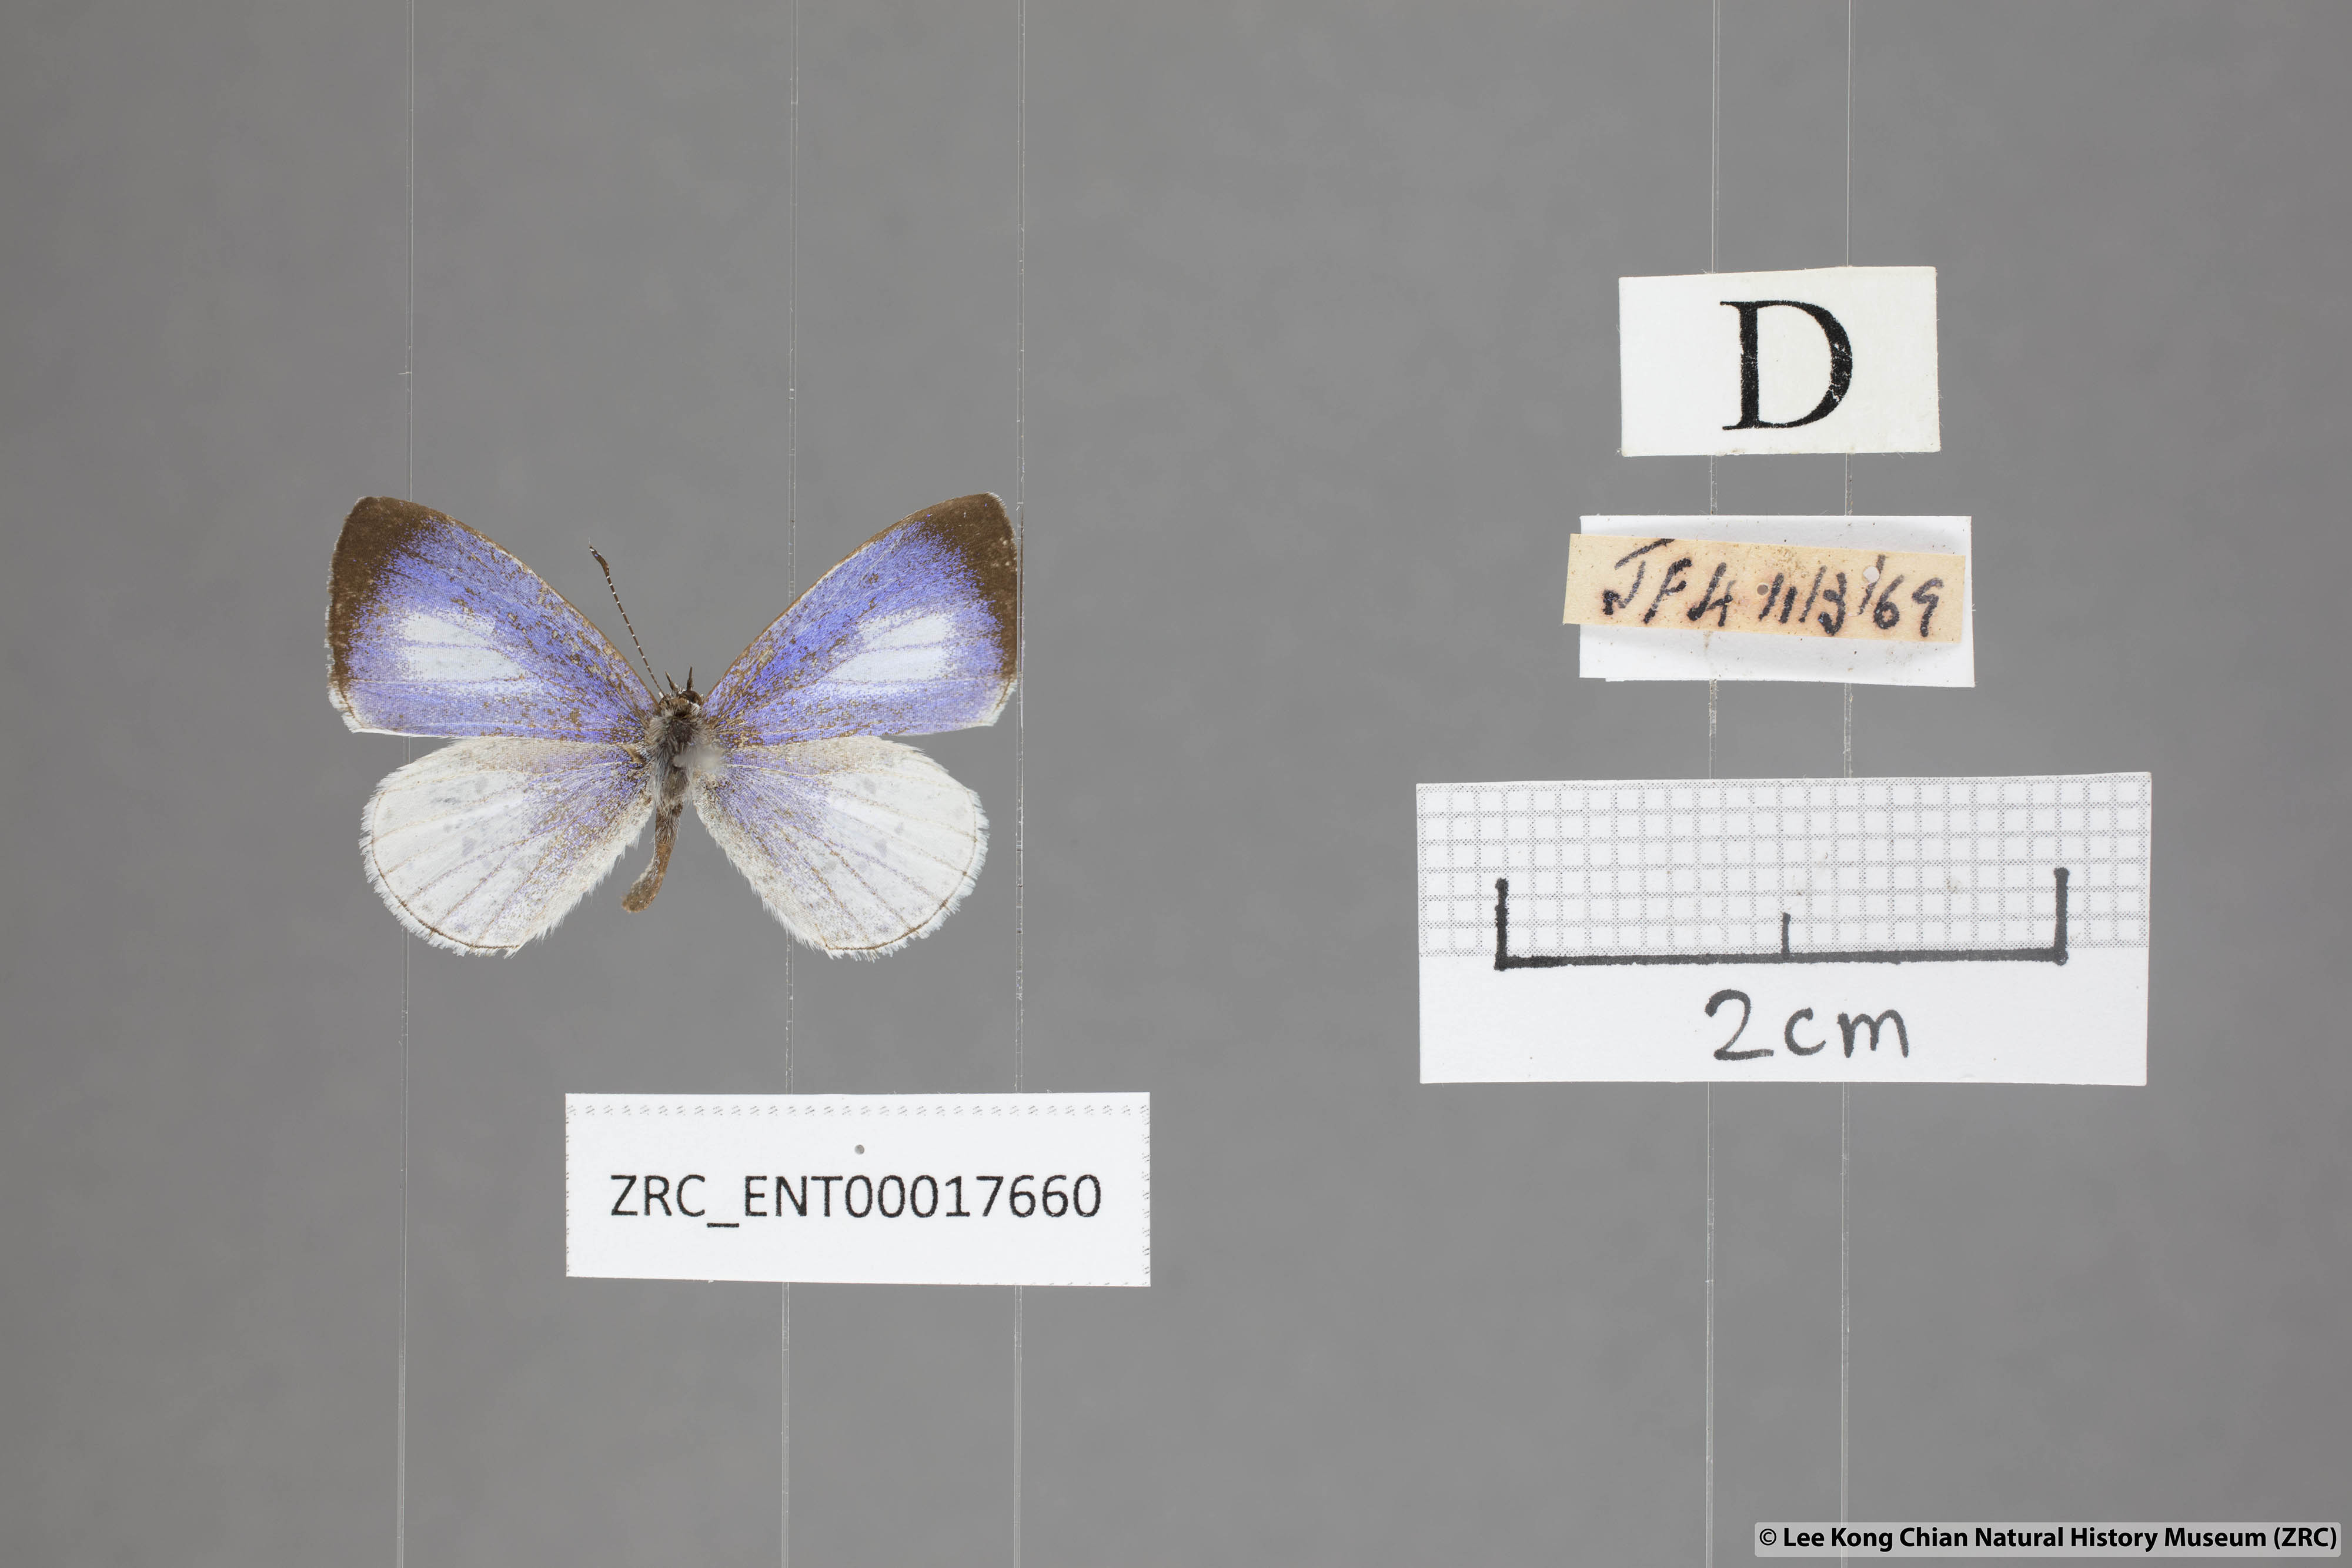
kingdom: Animalia
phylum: Arthropoda
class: Insecta
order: Lepidoptera
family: Lycaenidae
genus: Udara
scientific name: Udara albocaerulea
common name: Albocerulean
